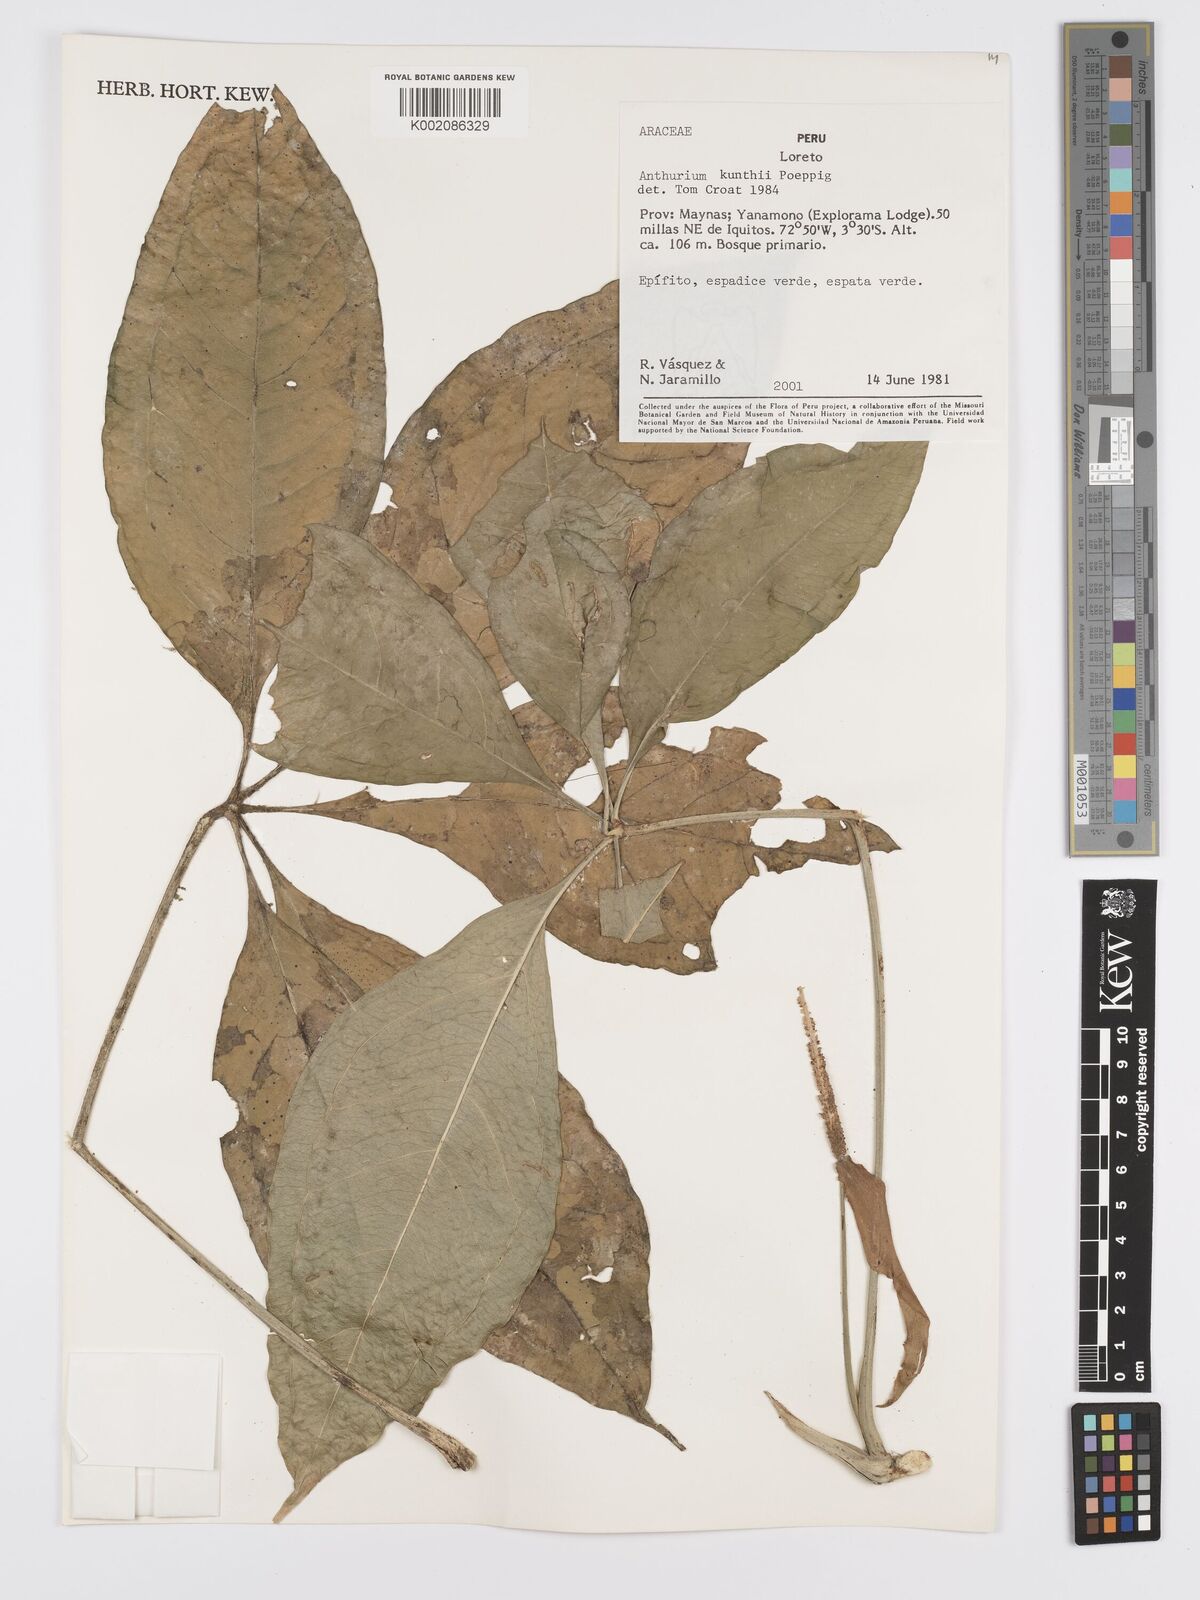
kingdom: Plantae
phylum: Tracheophyta
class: Liliopsida
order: Alismatales
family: Araceae
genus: Anthurium
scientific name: Anthurium kunthii
